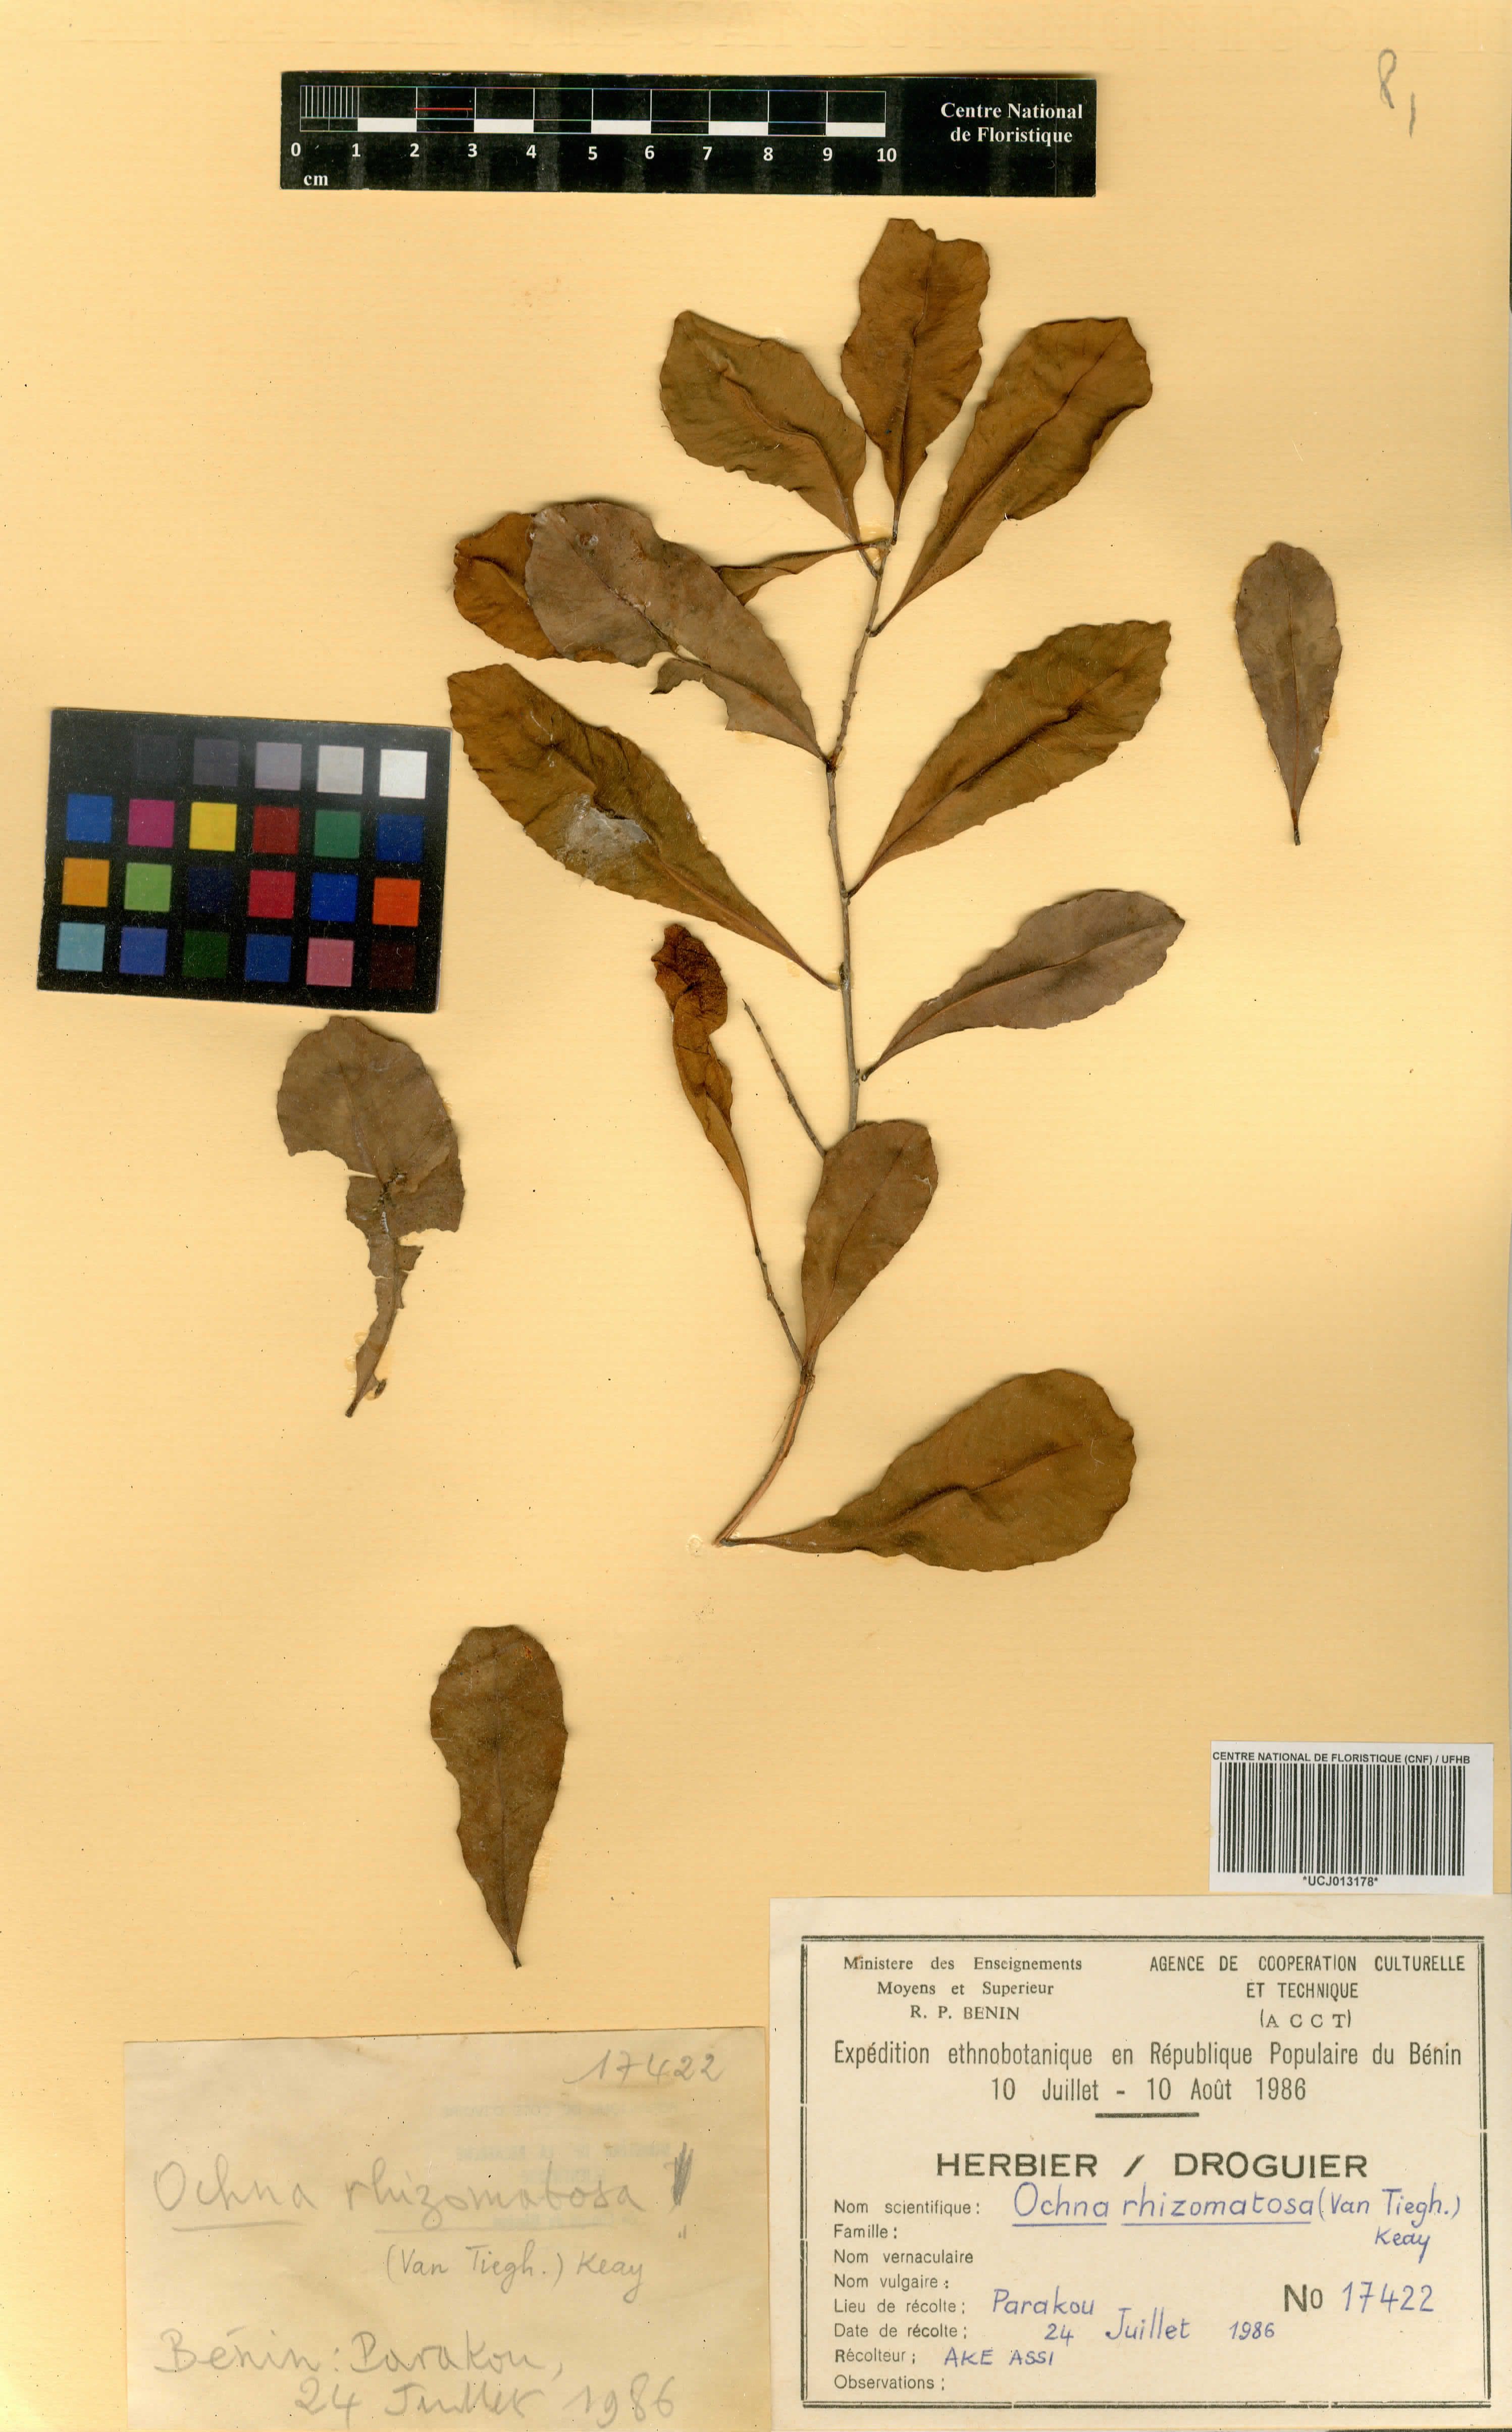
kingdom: Plantae
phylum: Tracheophyta
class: Magnoliopsida
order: Malpighiales
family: Ochnaceae
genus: Ochna
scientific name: Ochna rhizomatosa
